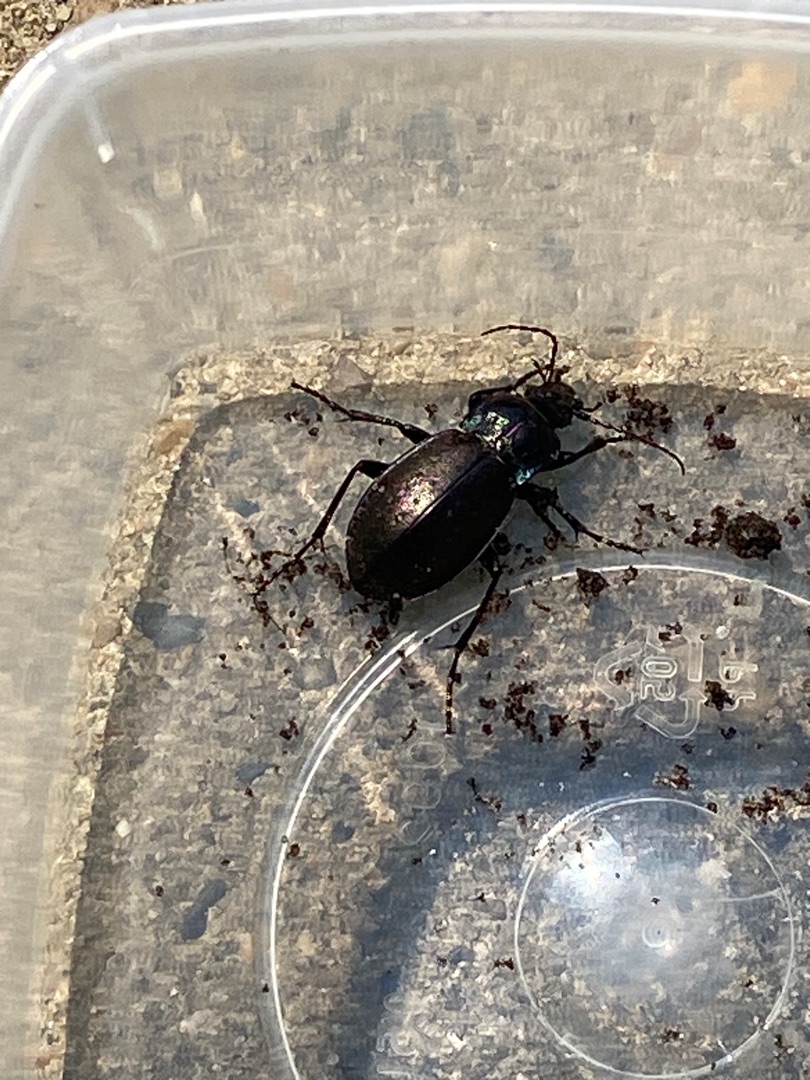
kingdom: Animalia
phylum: Arthropoda
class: Insecta
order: Coleoptera
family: Carabidae
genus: Carabus
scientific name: Carabus nemoralis
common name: Kratløber
